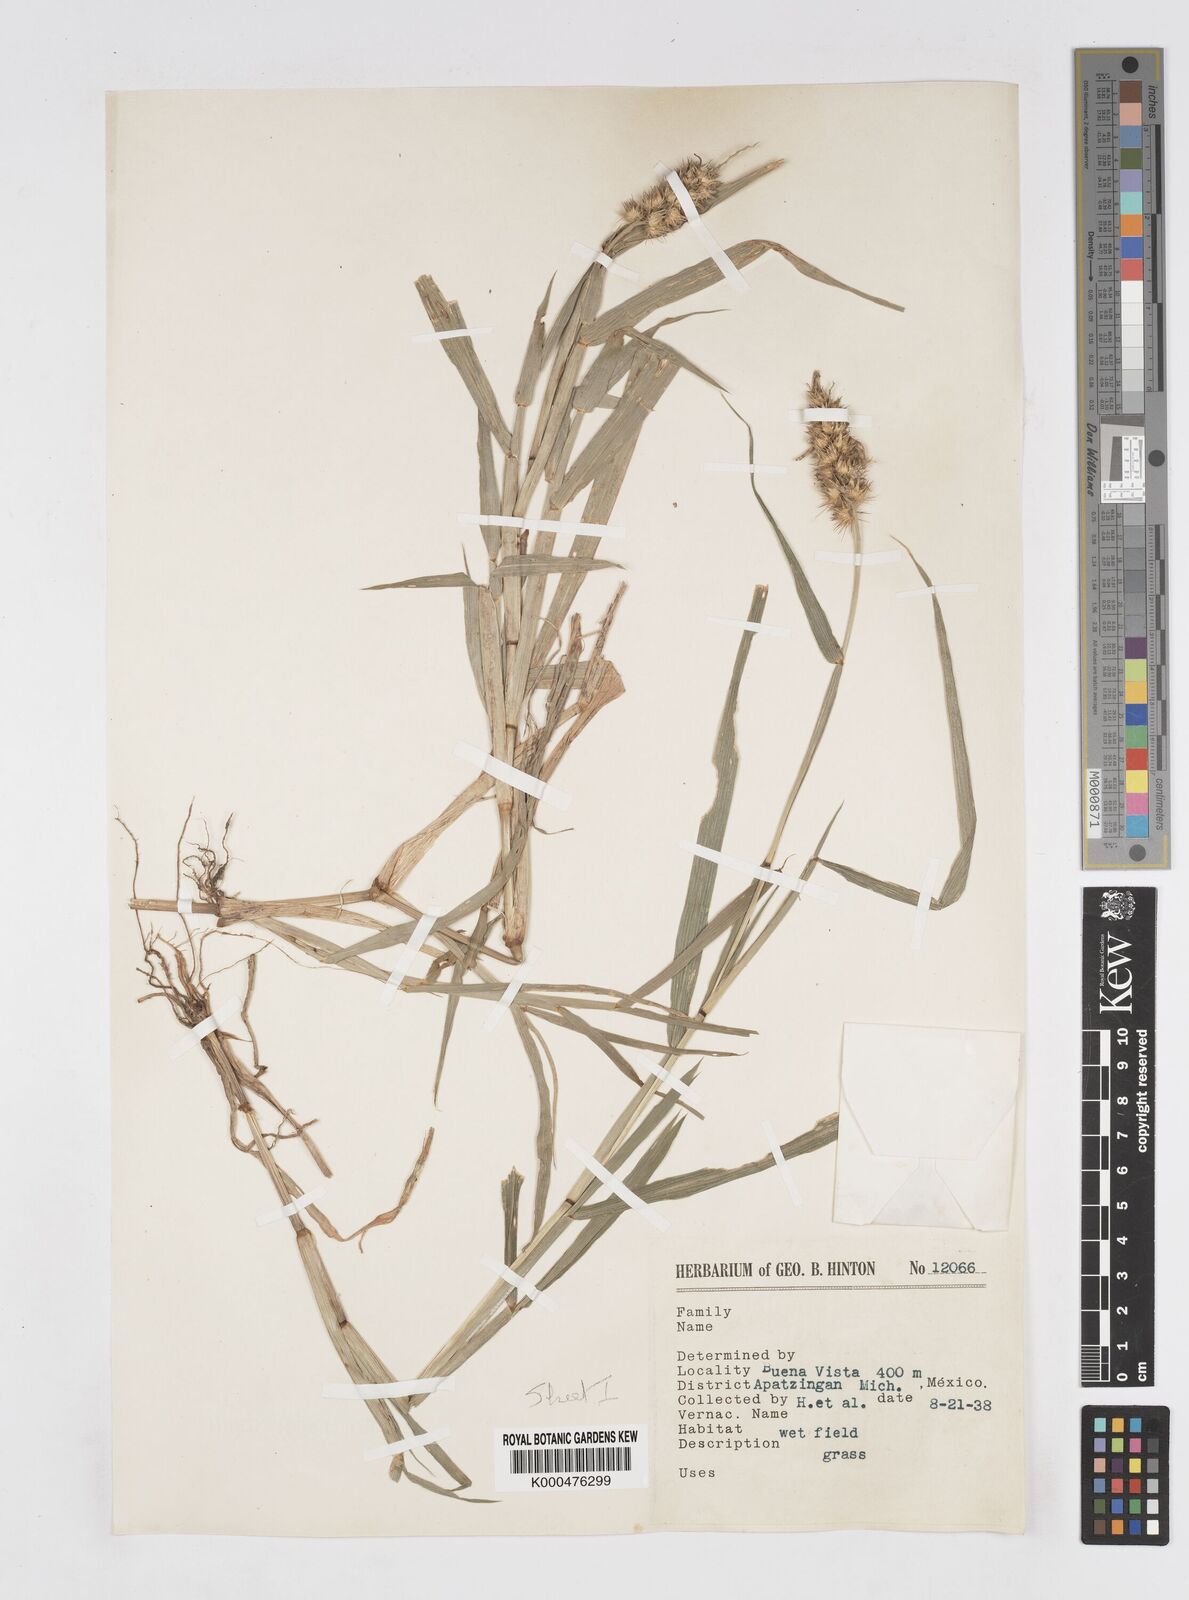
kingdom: Plantae
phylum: Tracheophyta
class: Liliopsida
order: Poales
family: Poaceae
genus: Cenchrus
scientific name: Cenchrus echinatus
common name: Southern sandbur
